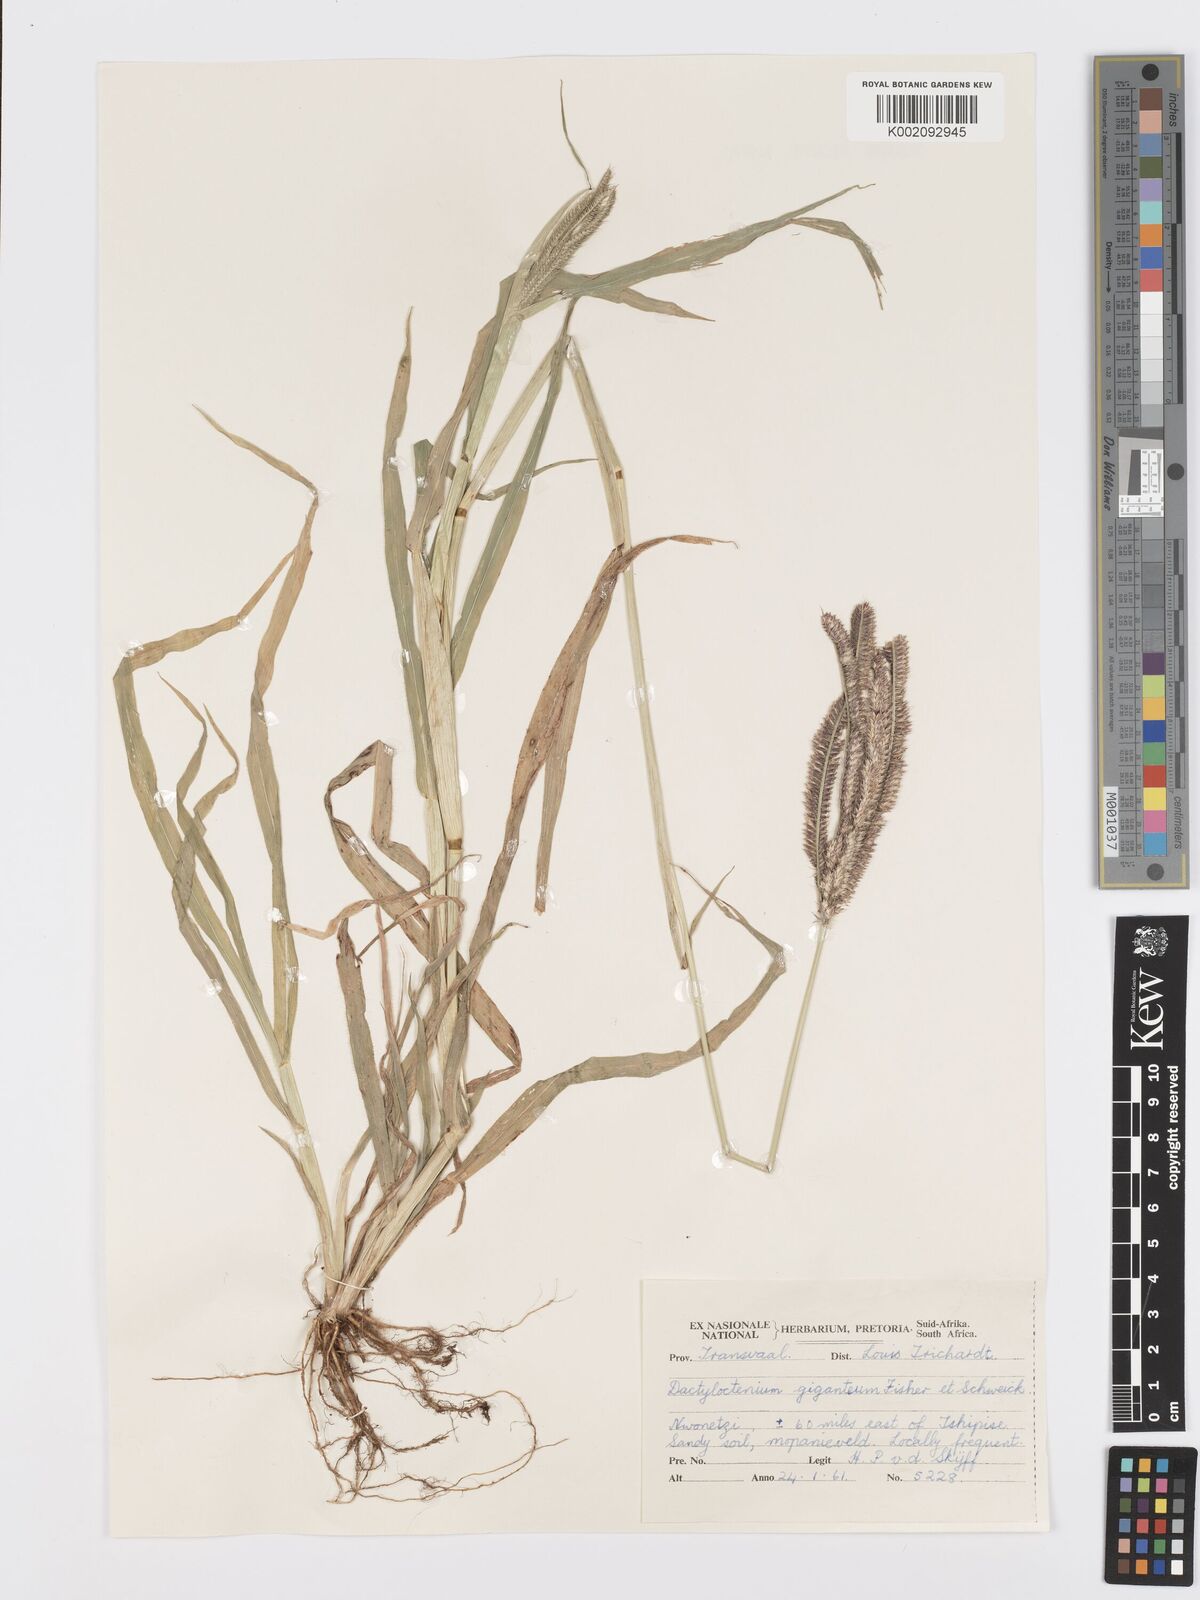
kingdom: Plantae
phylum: Tracheophyta
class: Liliopsida
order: Poales
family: Poaceae
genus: Dactyloctenium
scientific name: Dactyloctenium giganteum
